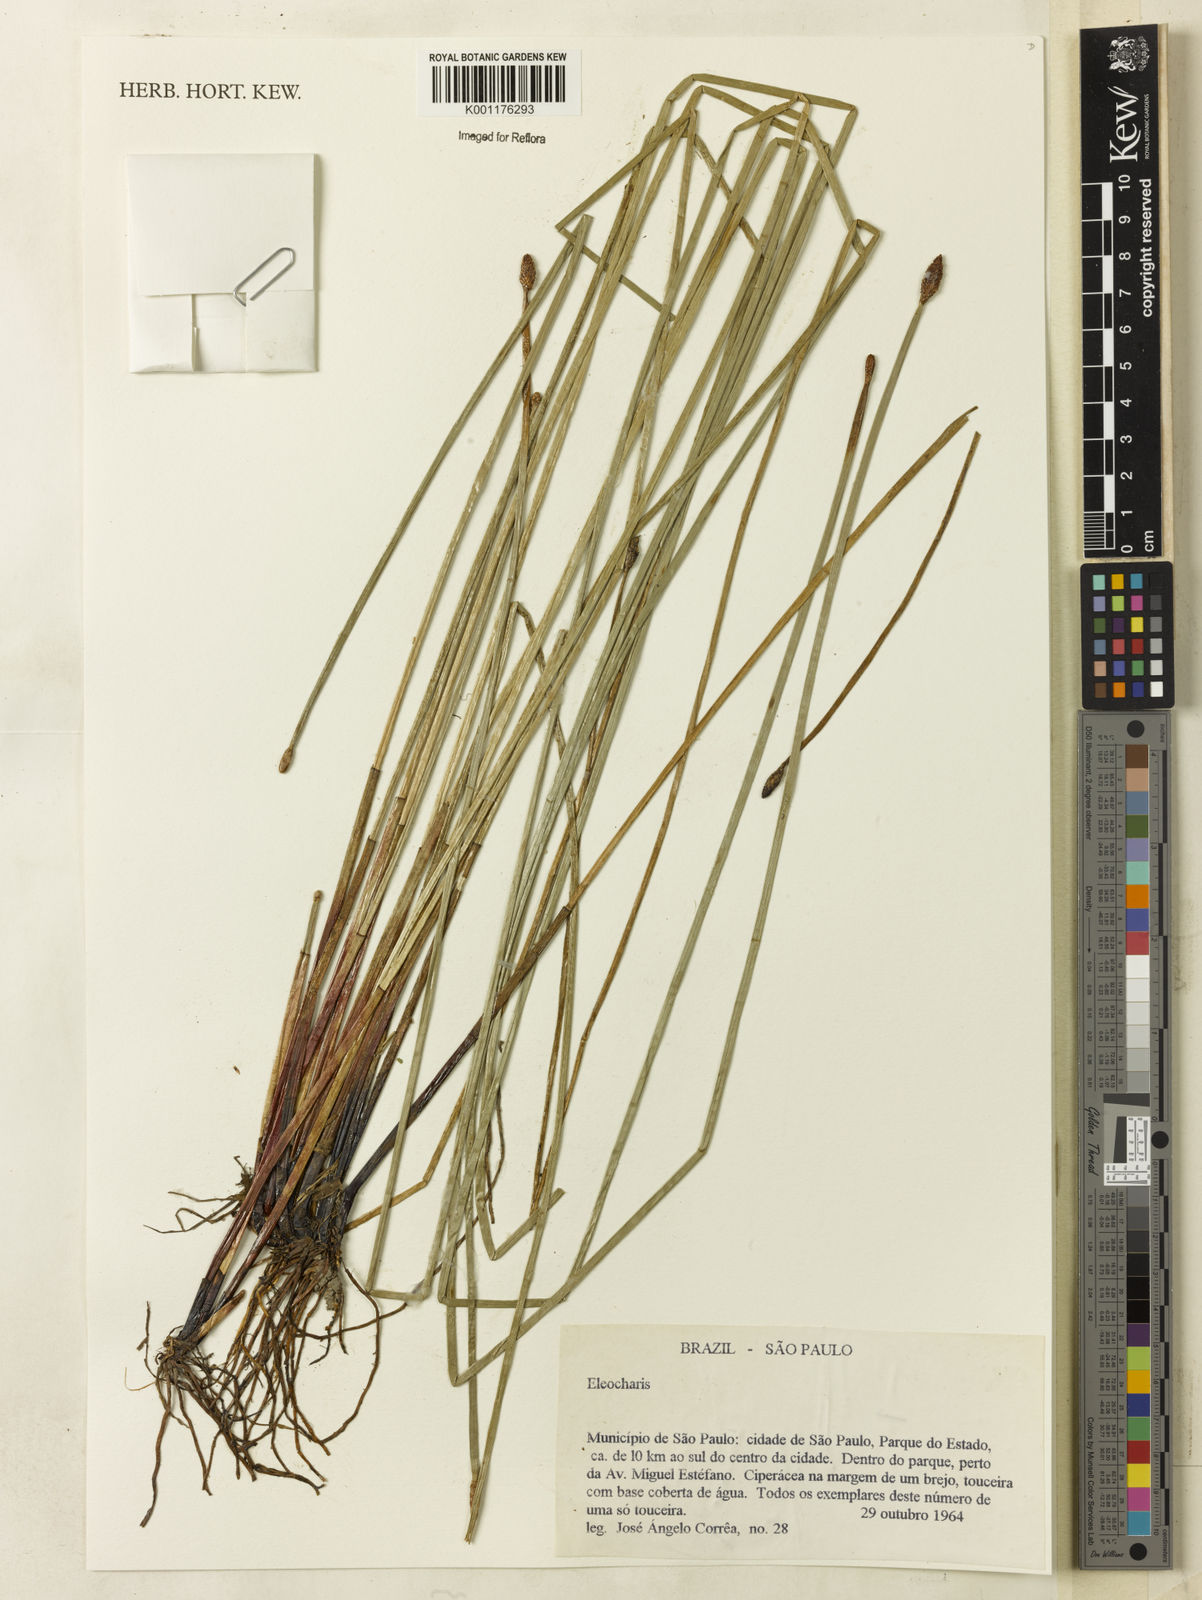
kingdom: Plantae
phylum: Tracheophyta
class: Liliopsida
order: Poales
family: Cyperaceae
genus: Eleocharis
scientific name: Eleocharis
